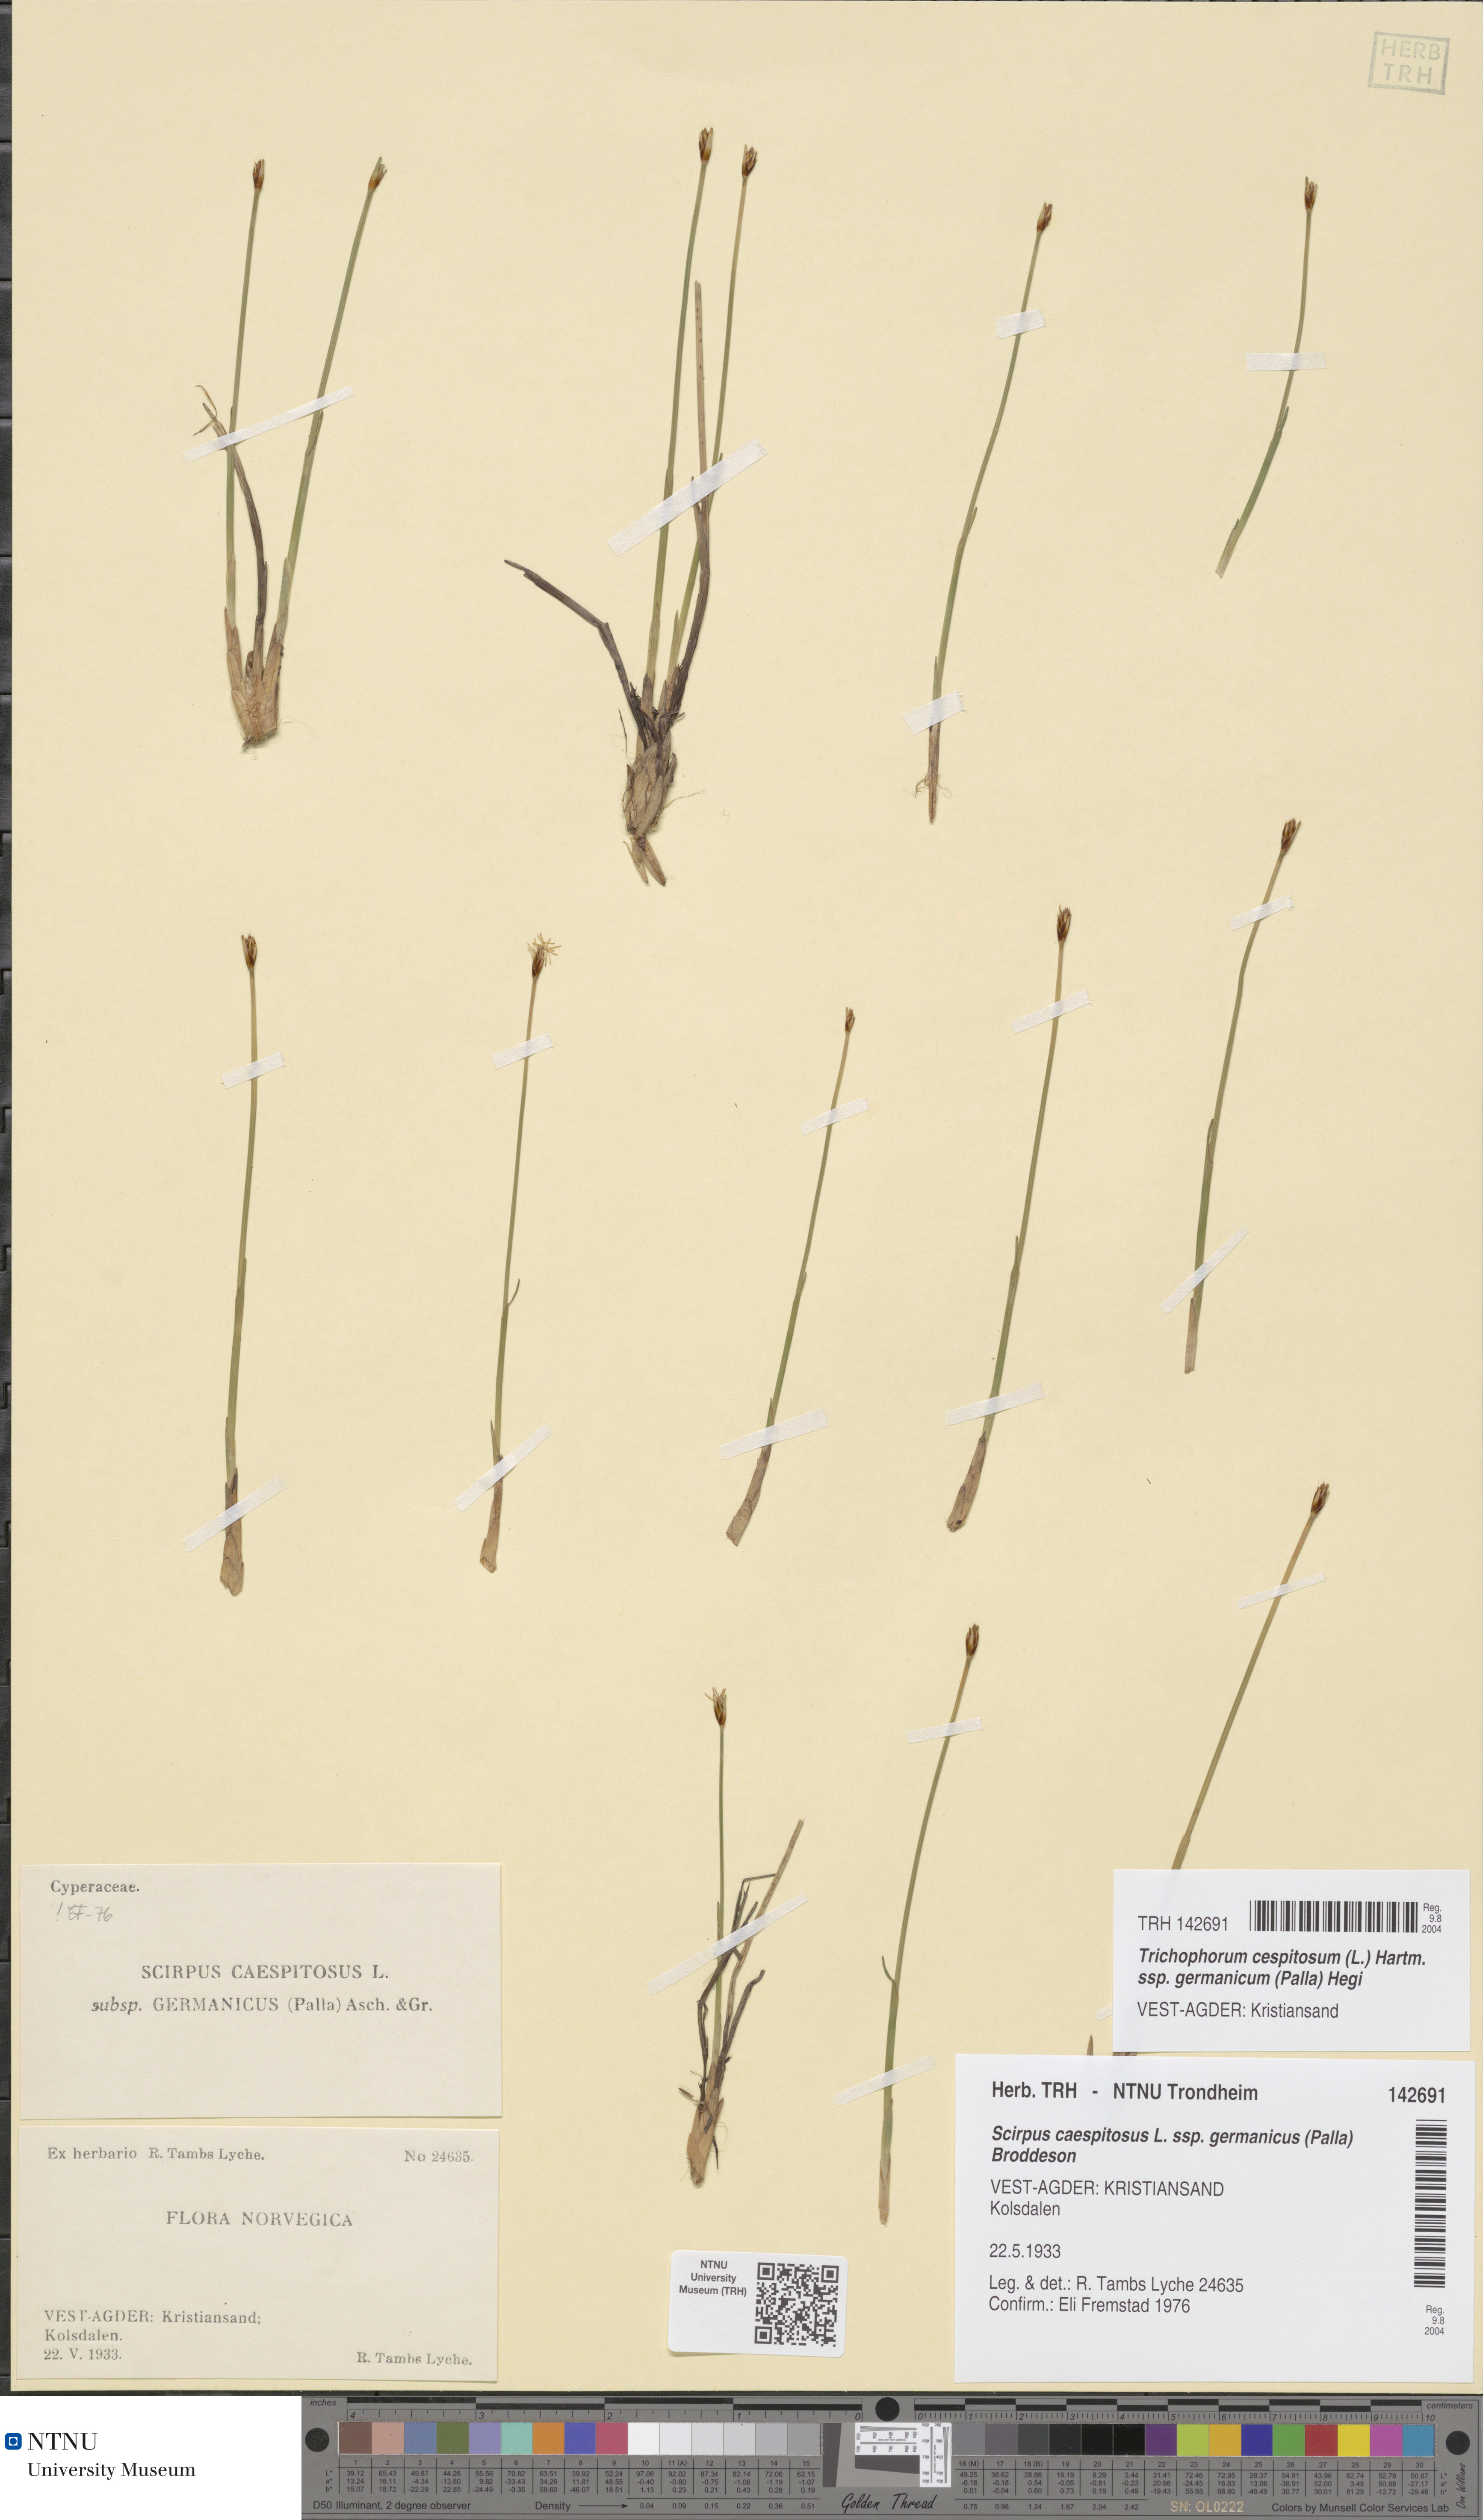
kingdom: Plantae
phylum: Tracheophyta
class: Liliopsida
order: Poales
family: Cyperaceae
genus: Trichophorum
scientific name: Trichophorum cespitosum
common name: Cespitose bulrush
